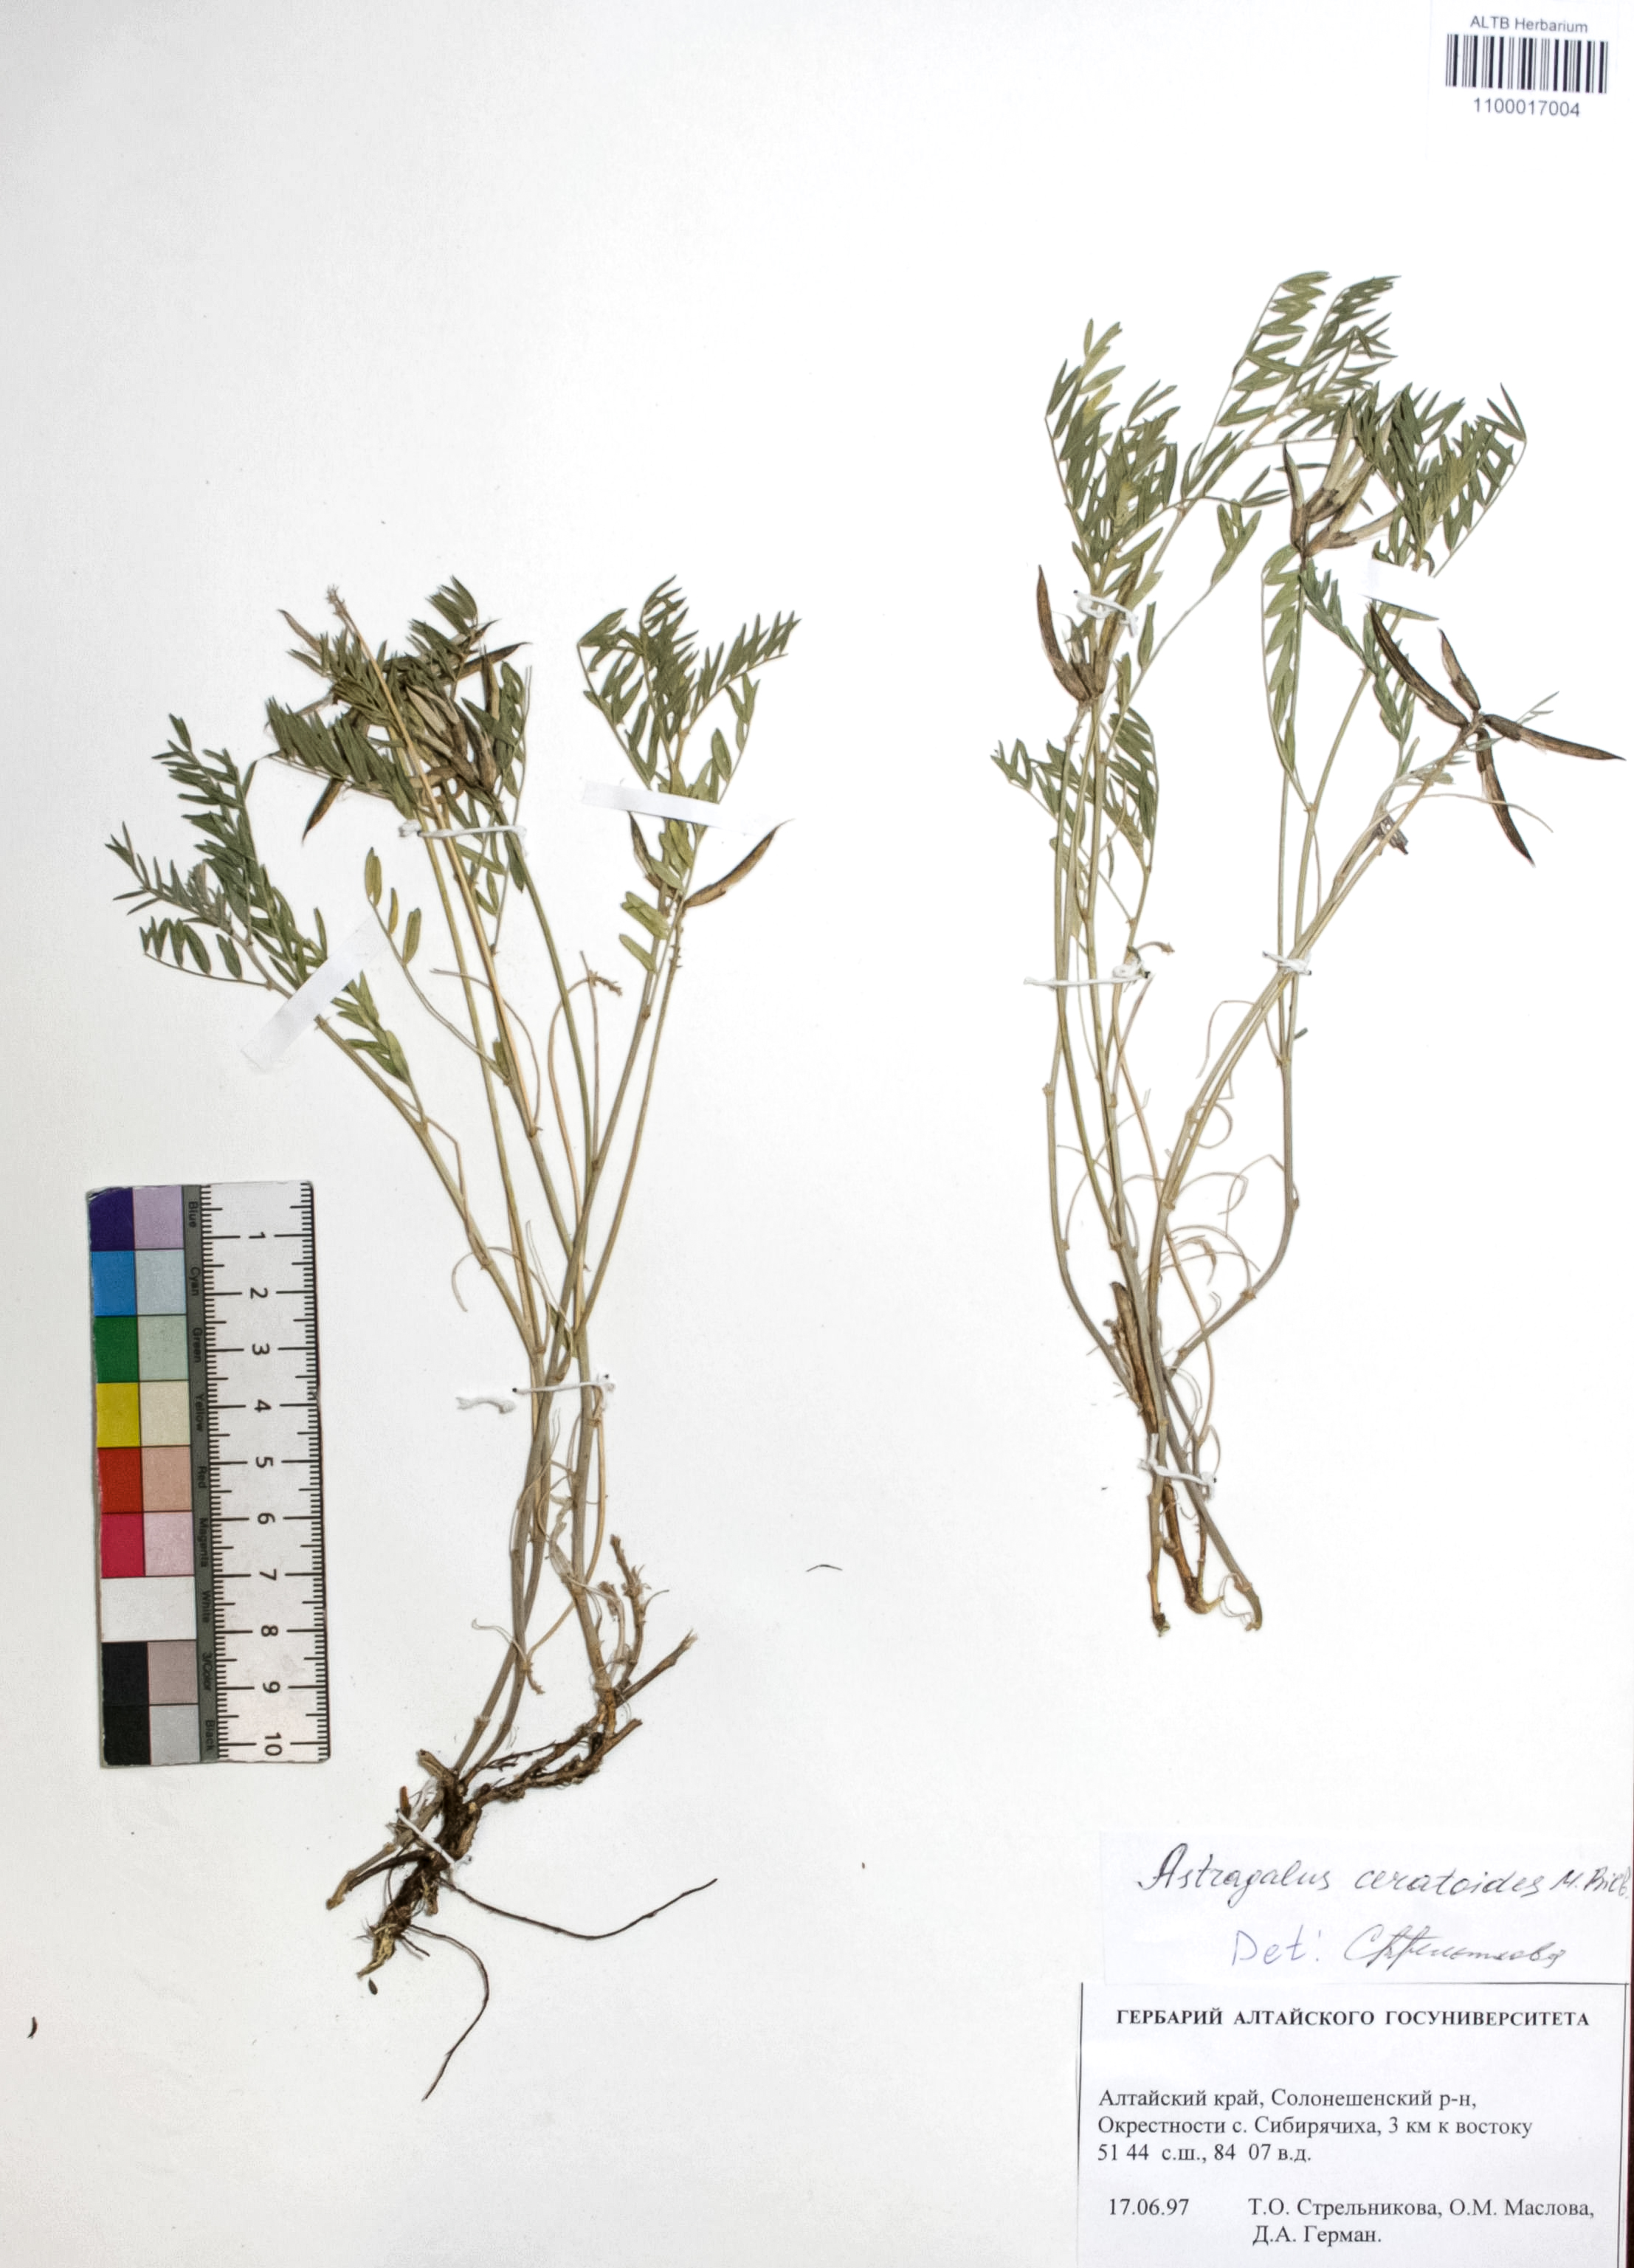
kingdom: Plantae
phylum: Tracheophyta
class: Magnoliopsida
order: Fabales
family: Fabaceae
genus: Astragalus
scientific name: Astragalus ceratoides
